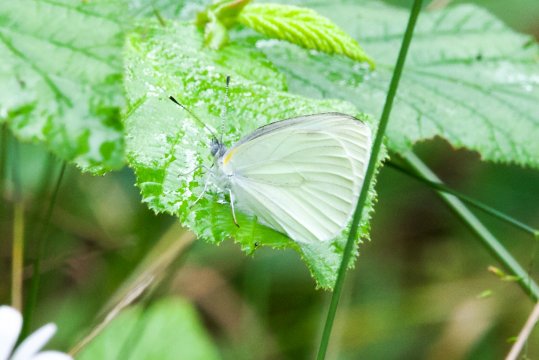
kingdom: Animalia
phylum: Arthropoda
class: Insecta
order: Lepidoptera
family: Pieridae
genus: Pieris
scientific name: Pieris oleracea
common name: Mustard White
